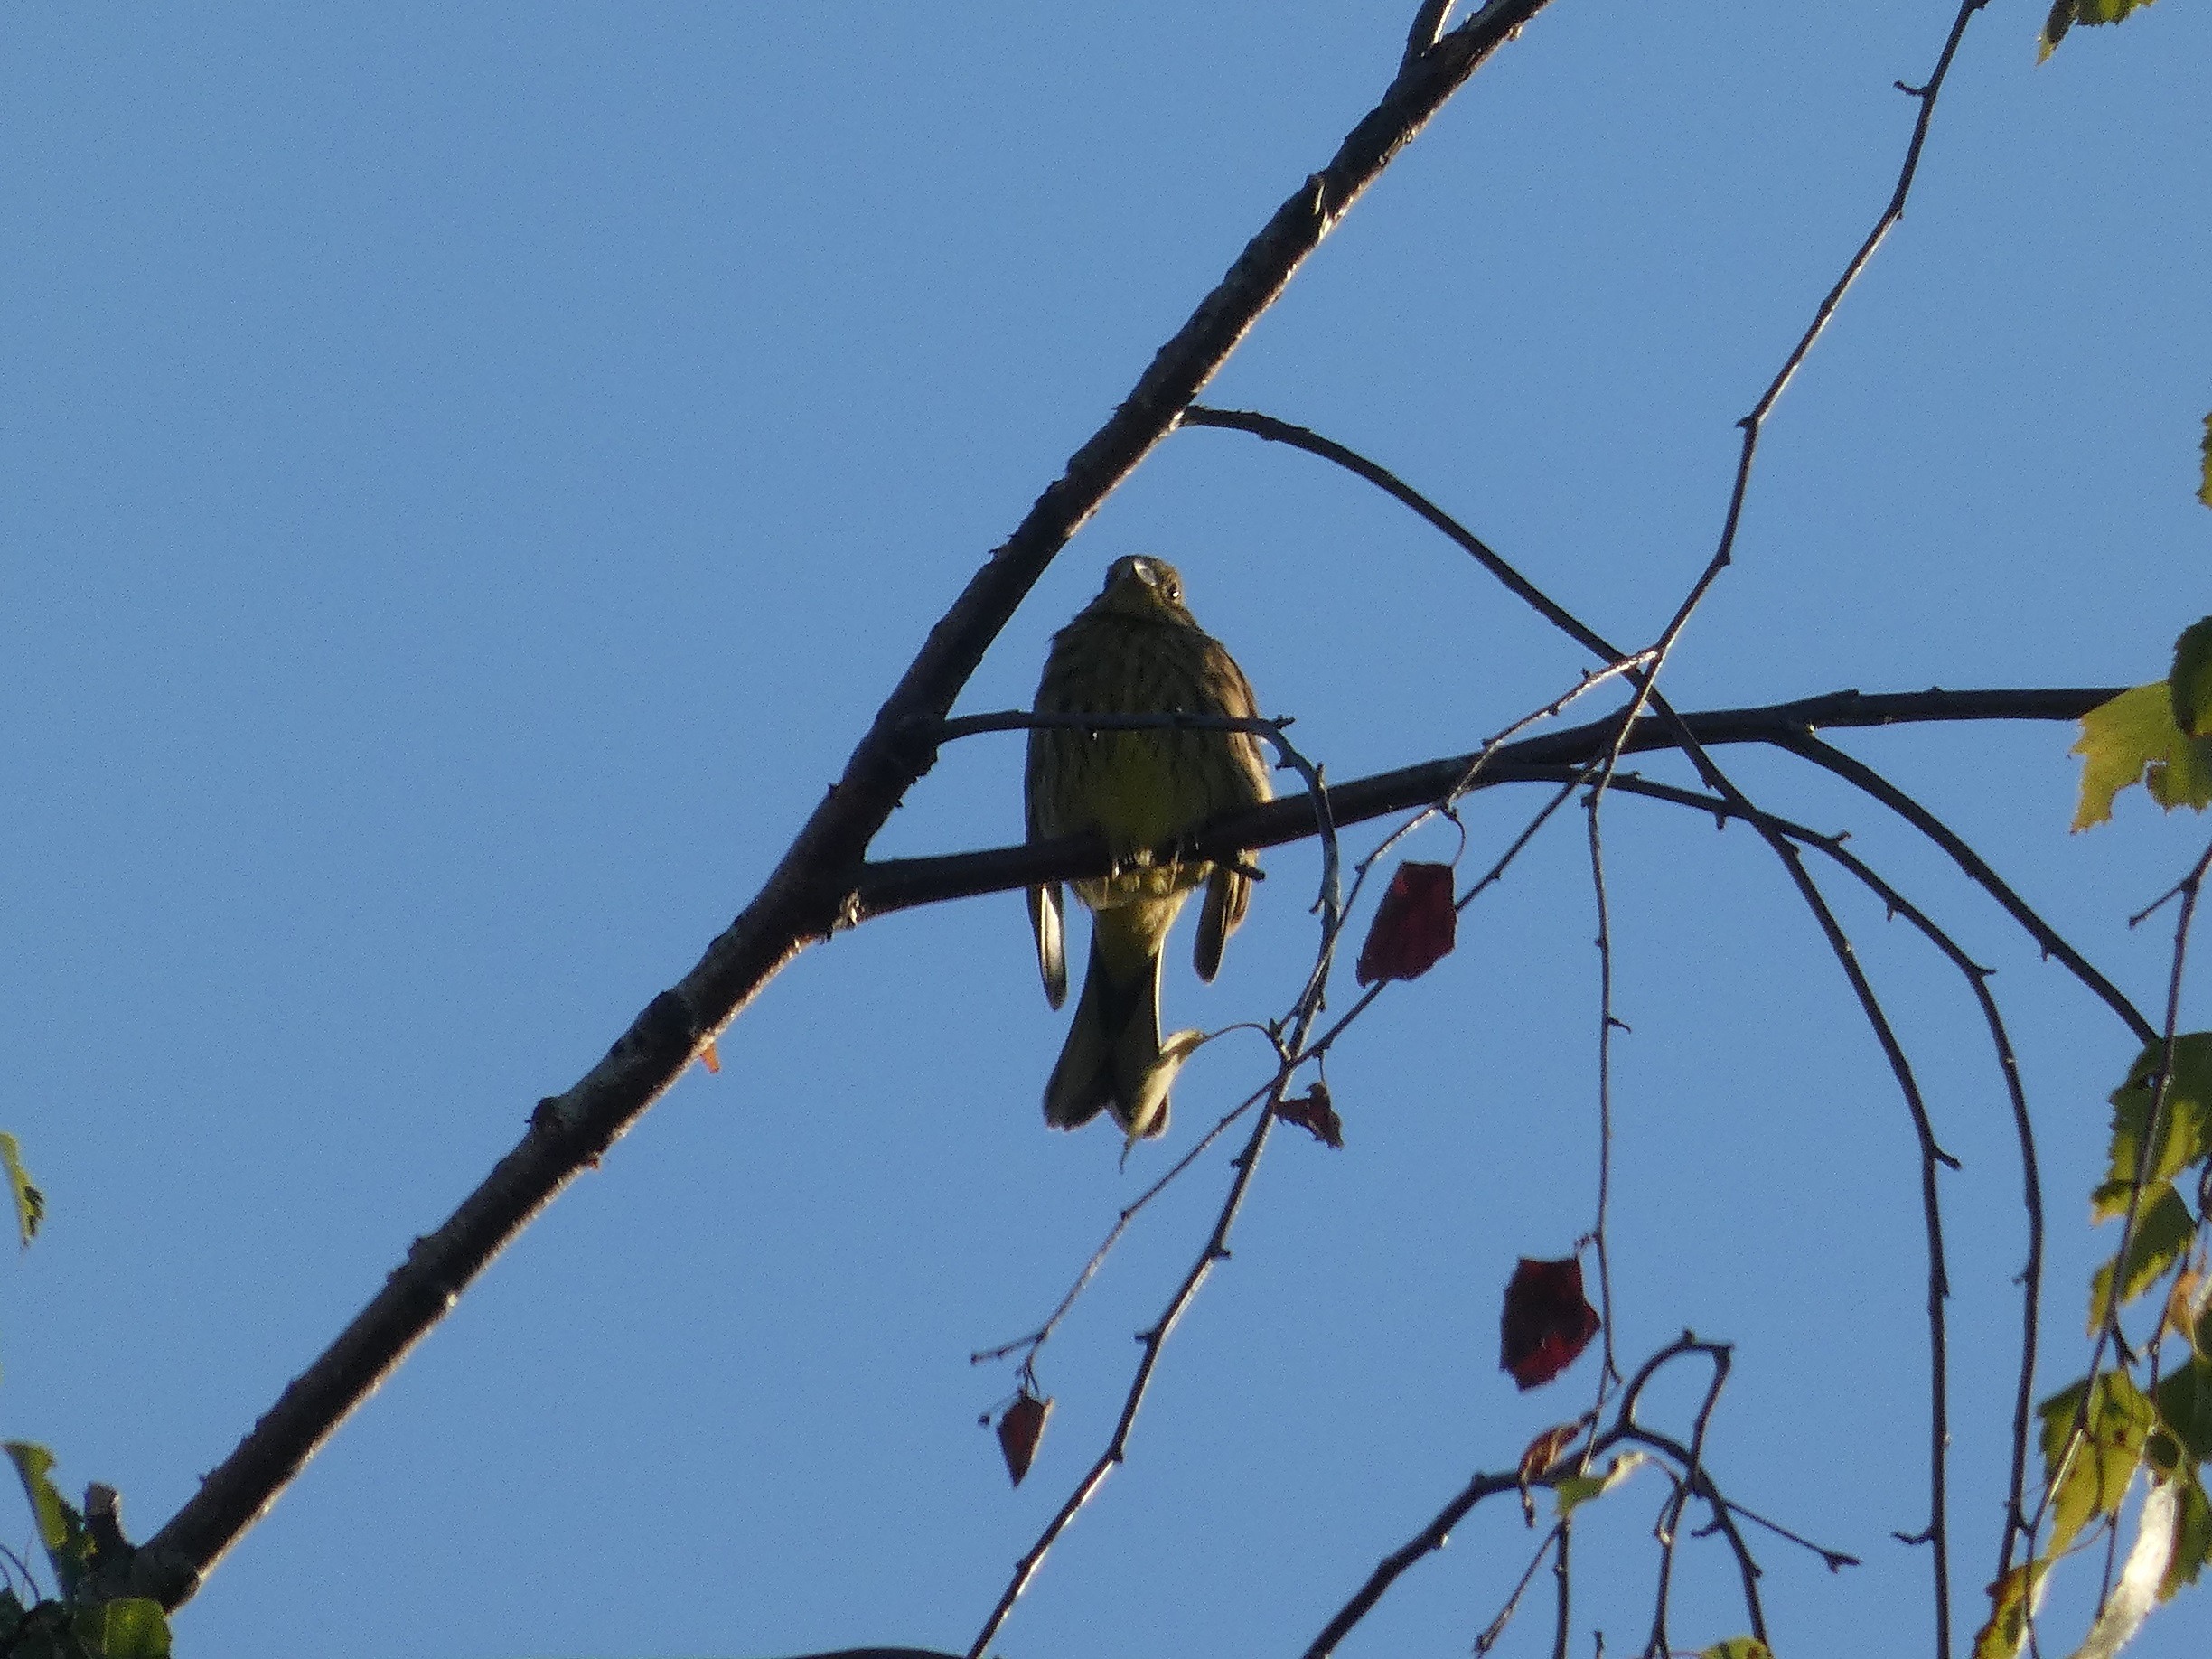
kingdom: Animalia
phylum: Chordata
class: Aves
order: Passeriformes
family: Emberizidae
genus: Emberiza
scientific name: Emberiza citrinella
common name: Gulspurv
